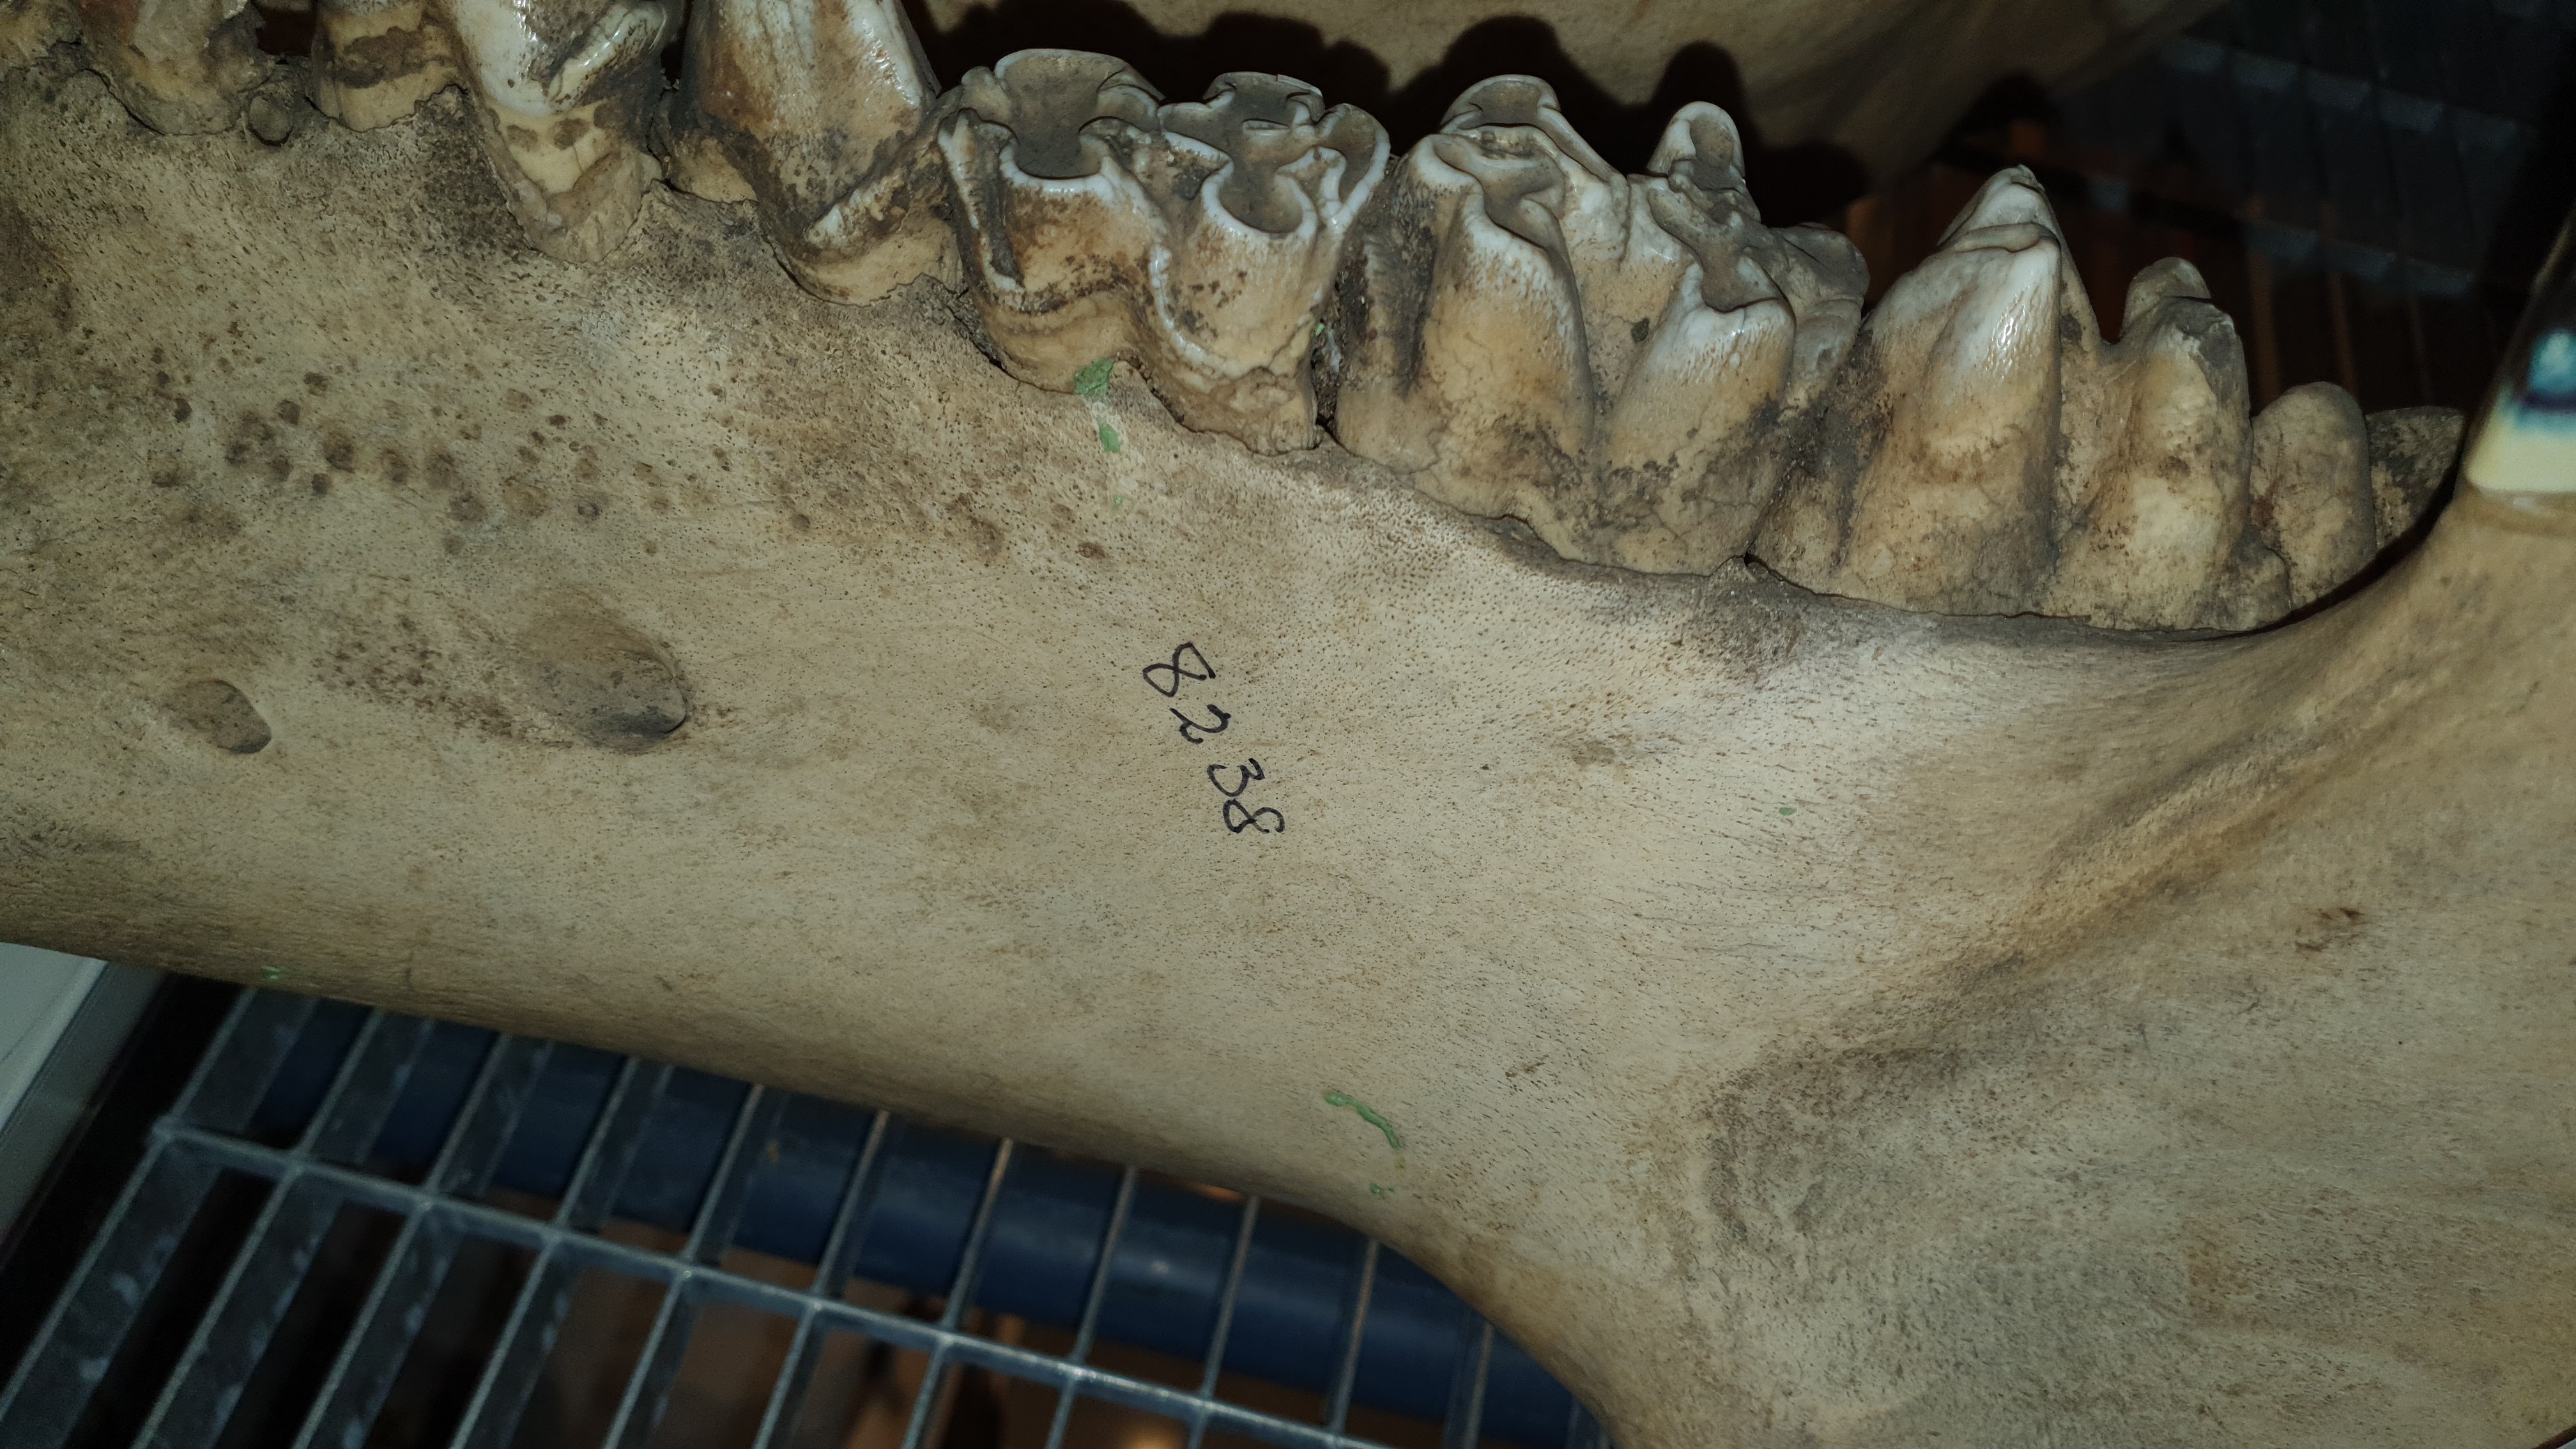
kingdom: Animalia
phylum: Chordata
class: Mammalia
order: Artiodactyla
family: Hippopotamidae
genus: Hippopotamus
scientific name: Hippopotamus amphibius
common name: Common hippopotamus
